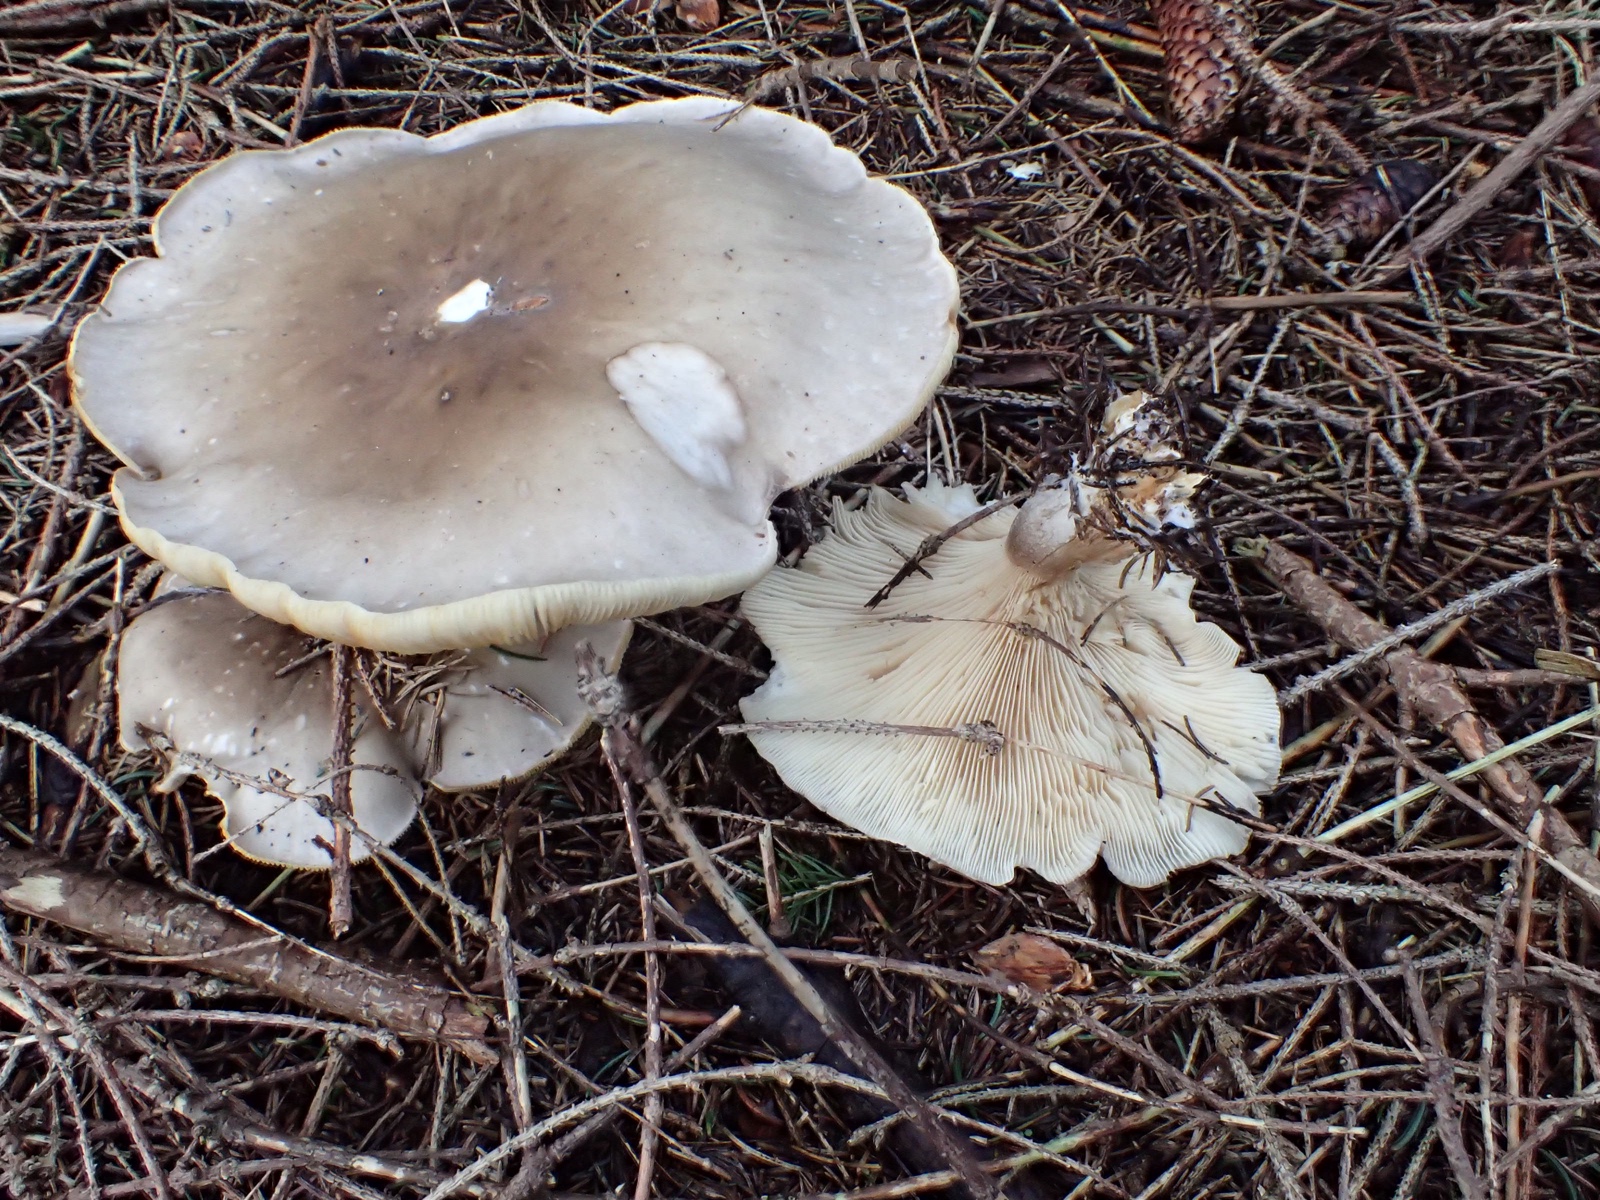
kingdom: Fungi
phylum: Basidiomycota
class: Agaricomycetes
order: Agaricales
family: Tricholomataceae
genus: Clitocybe
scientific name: Clitocybe nebularis
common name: tåge-tragthat
